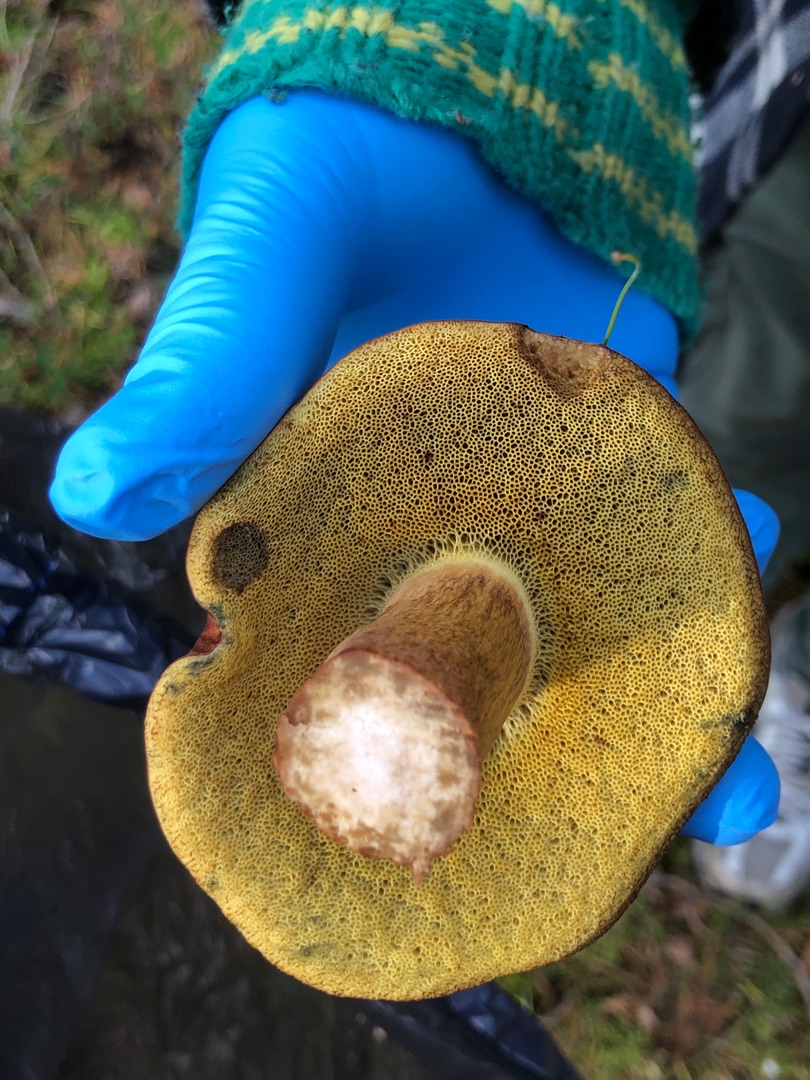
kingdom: Fungi
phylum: Basidiomycota
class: Agaricomycetes
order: Boletales
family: Boletaceae
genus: Imleria
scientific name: Imleria badia
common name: Brunstokket rørhat
